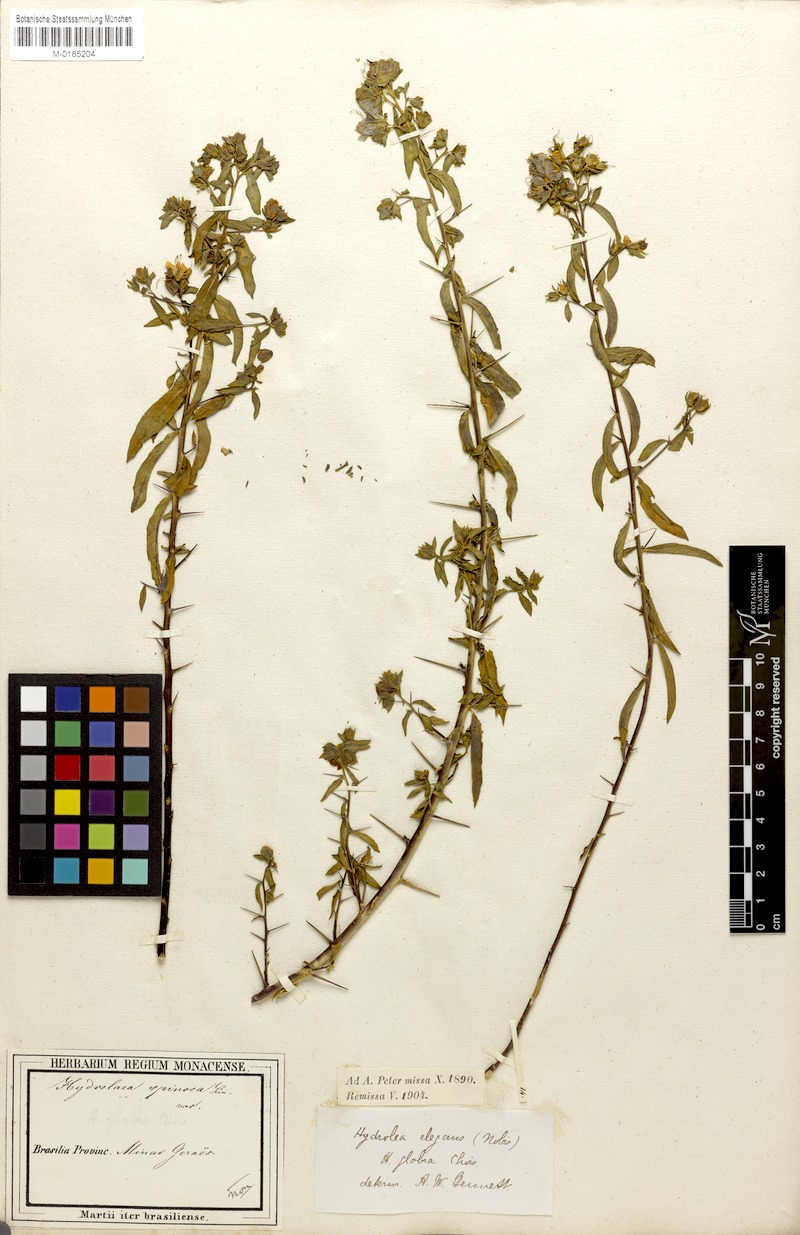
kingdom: Plantae
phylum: Tracheophyta
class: Magnoliopsida
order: Solanales
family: Hydroleaceae
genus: Hydrolea
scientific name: Hydrolea spinosa
